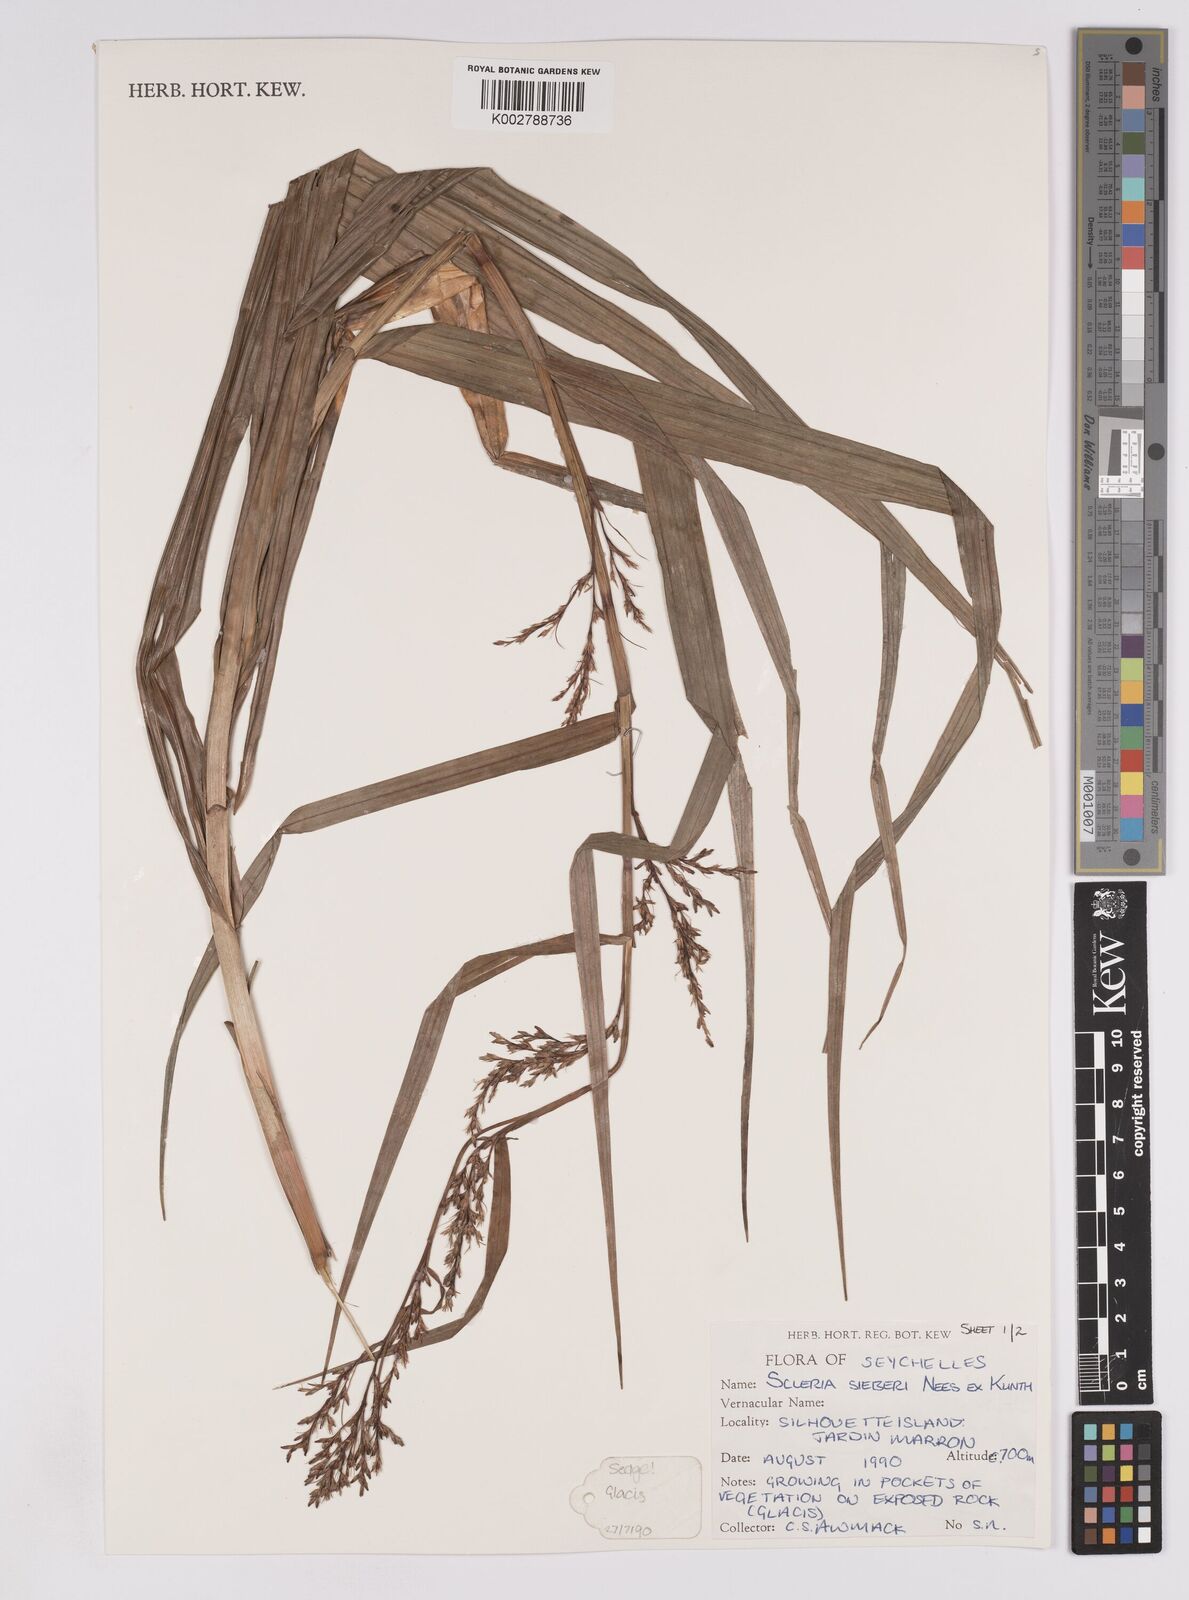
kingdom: Plantae
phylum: Tracheophyta
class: Liliopsida
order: Poales
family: Cyperaceae
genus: Scleria
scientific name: Scleria gaertneri
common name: Cortadera blanca
